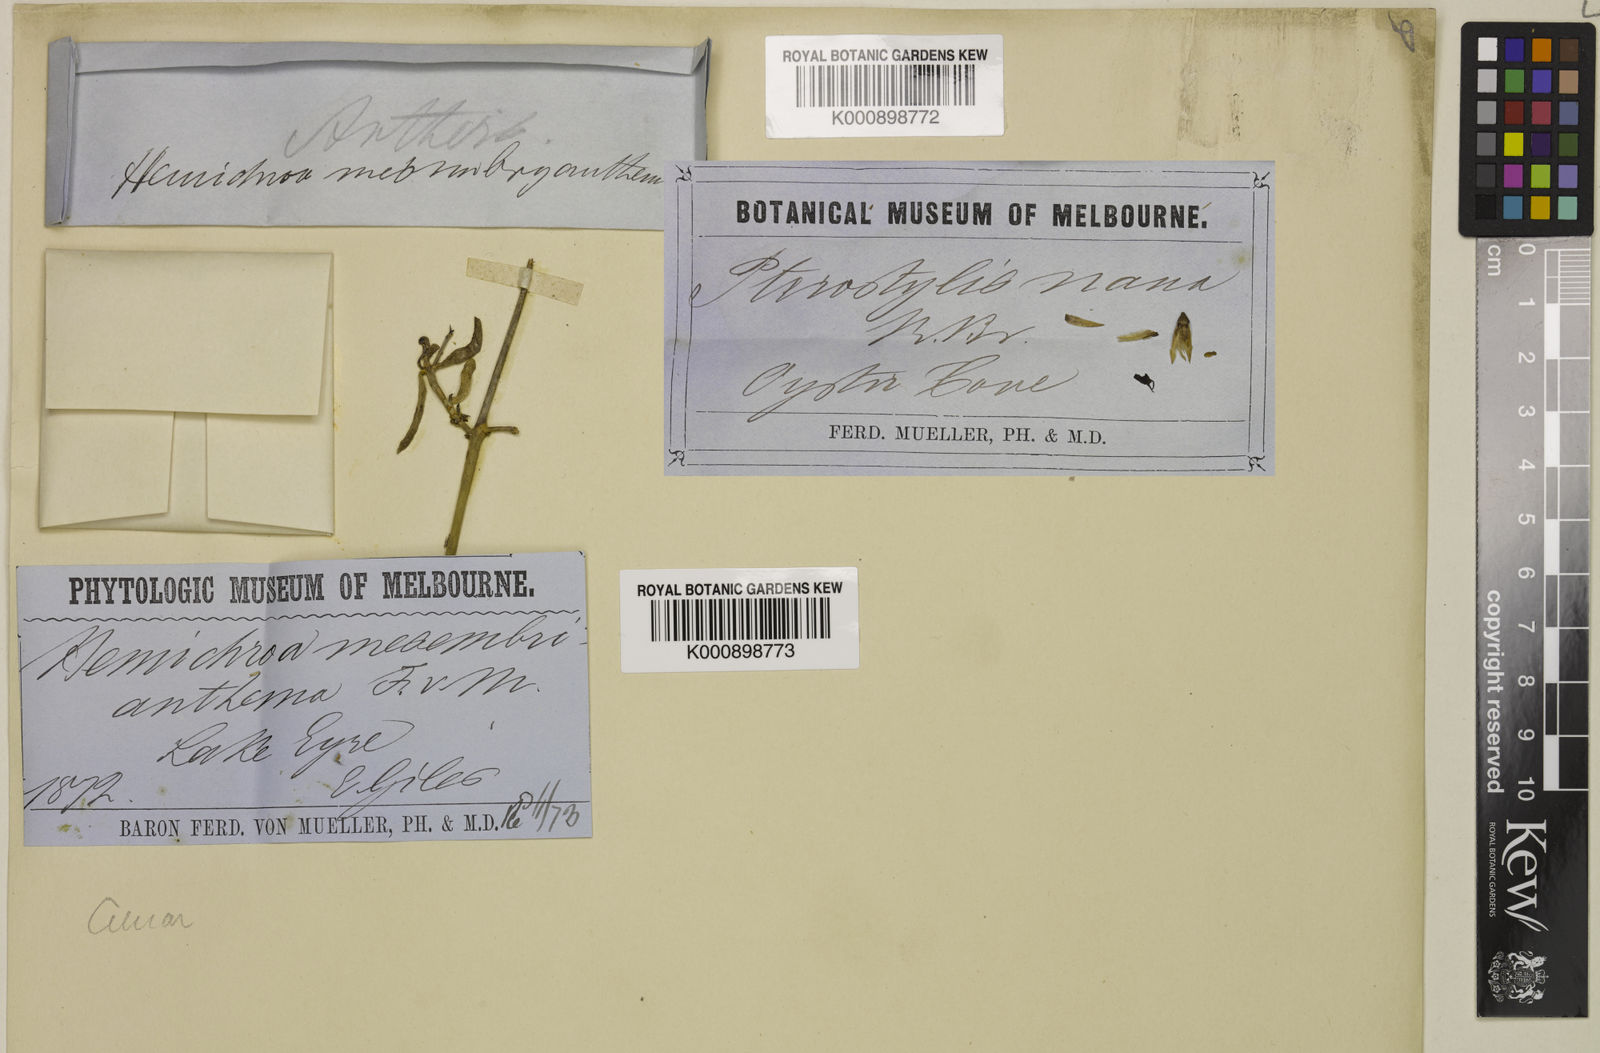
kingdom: Plantae
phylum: Tracheophyta
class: Magnoliopsida
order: Caryophyllales
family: Amaranthaceae
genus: Surreya
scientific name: Surreya mesembryanthema
